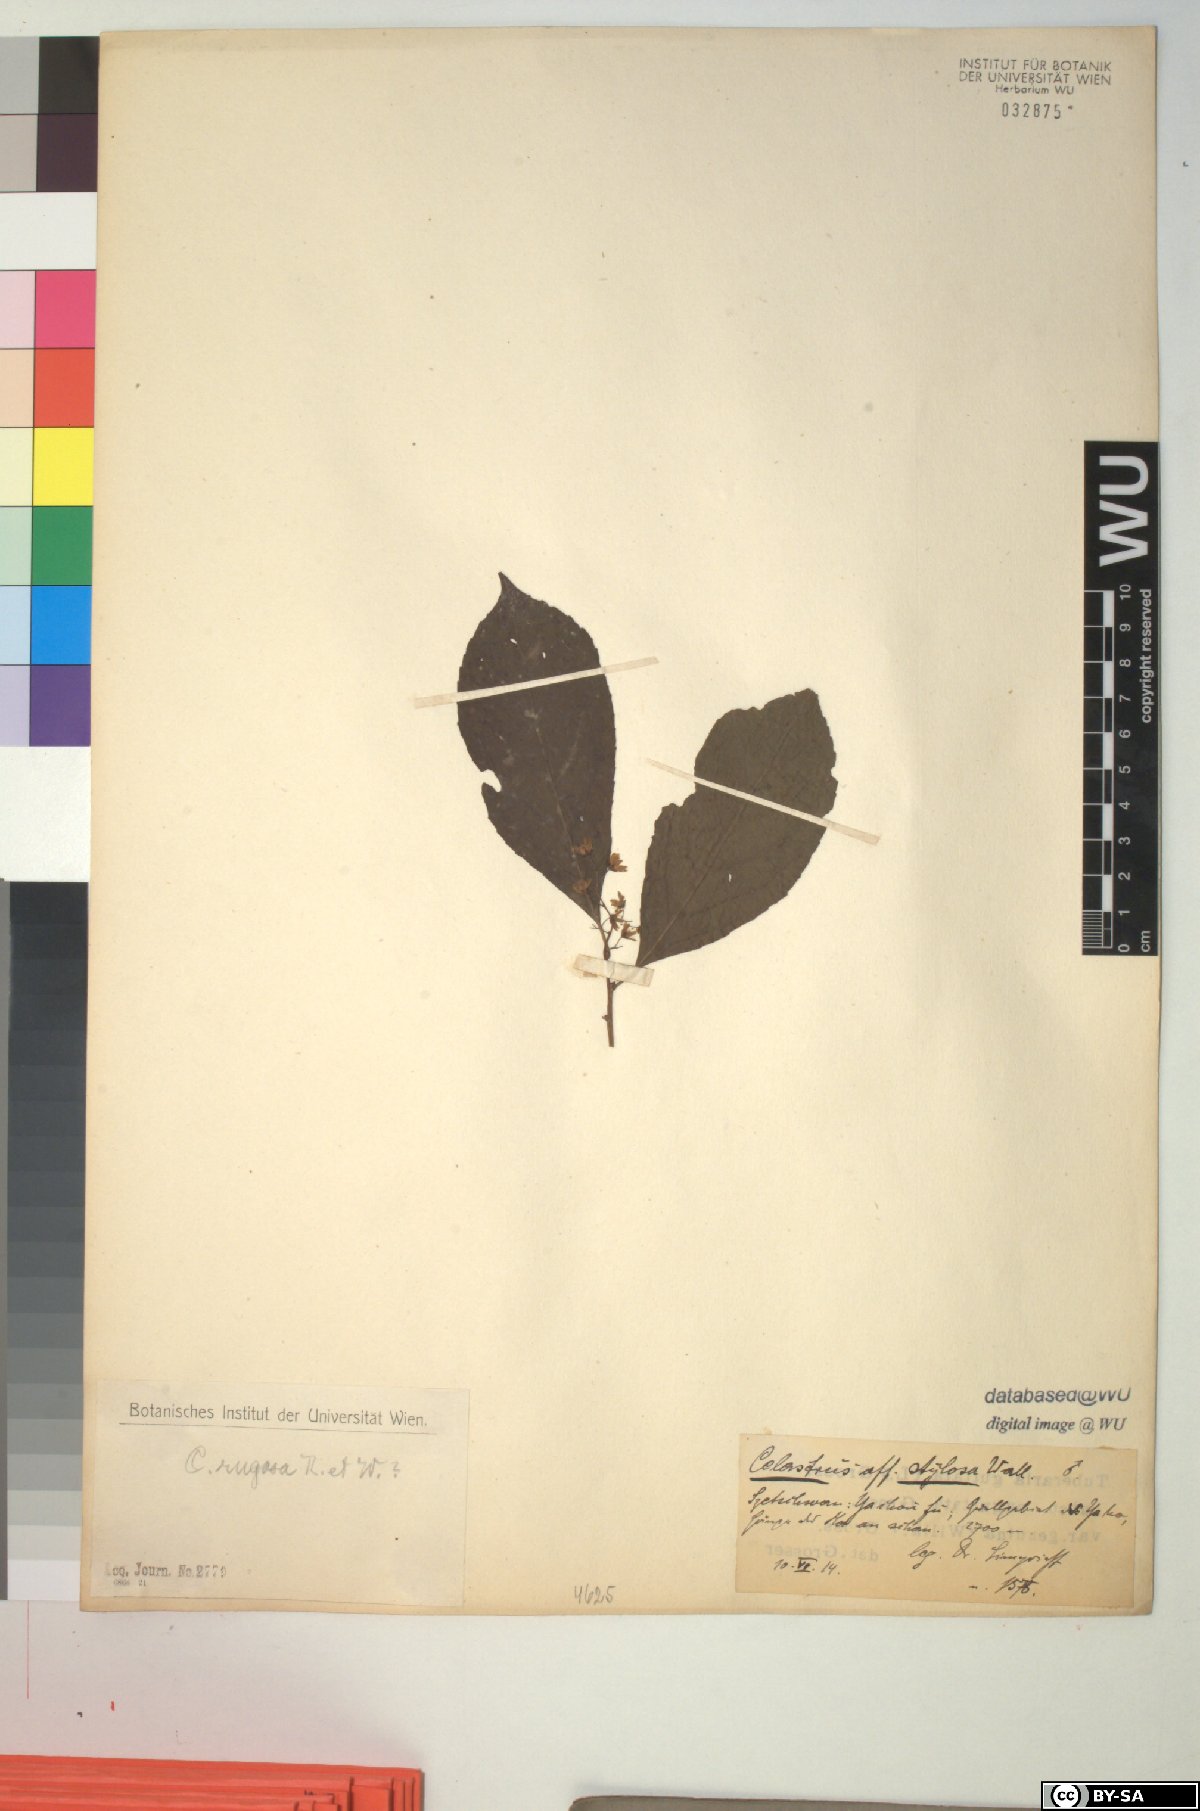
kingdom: Plantae
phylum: Tracheophyta
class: Magnoliopsida
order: Celastrales
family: Celastraceae
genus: Celastrus
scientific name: Celastrus rugosus
